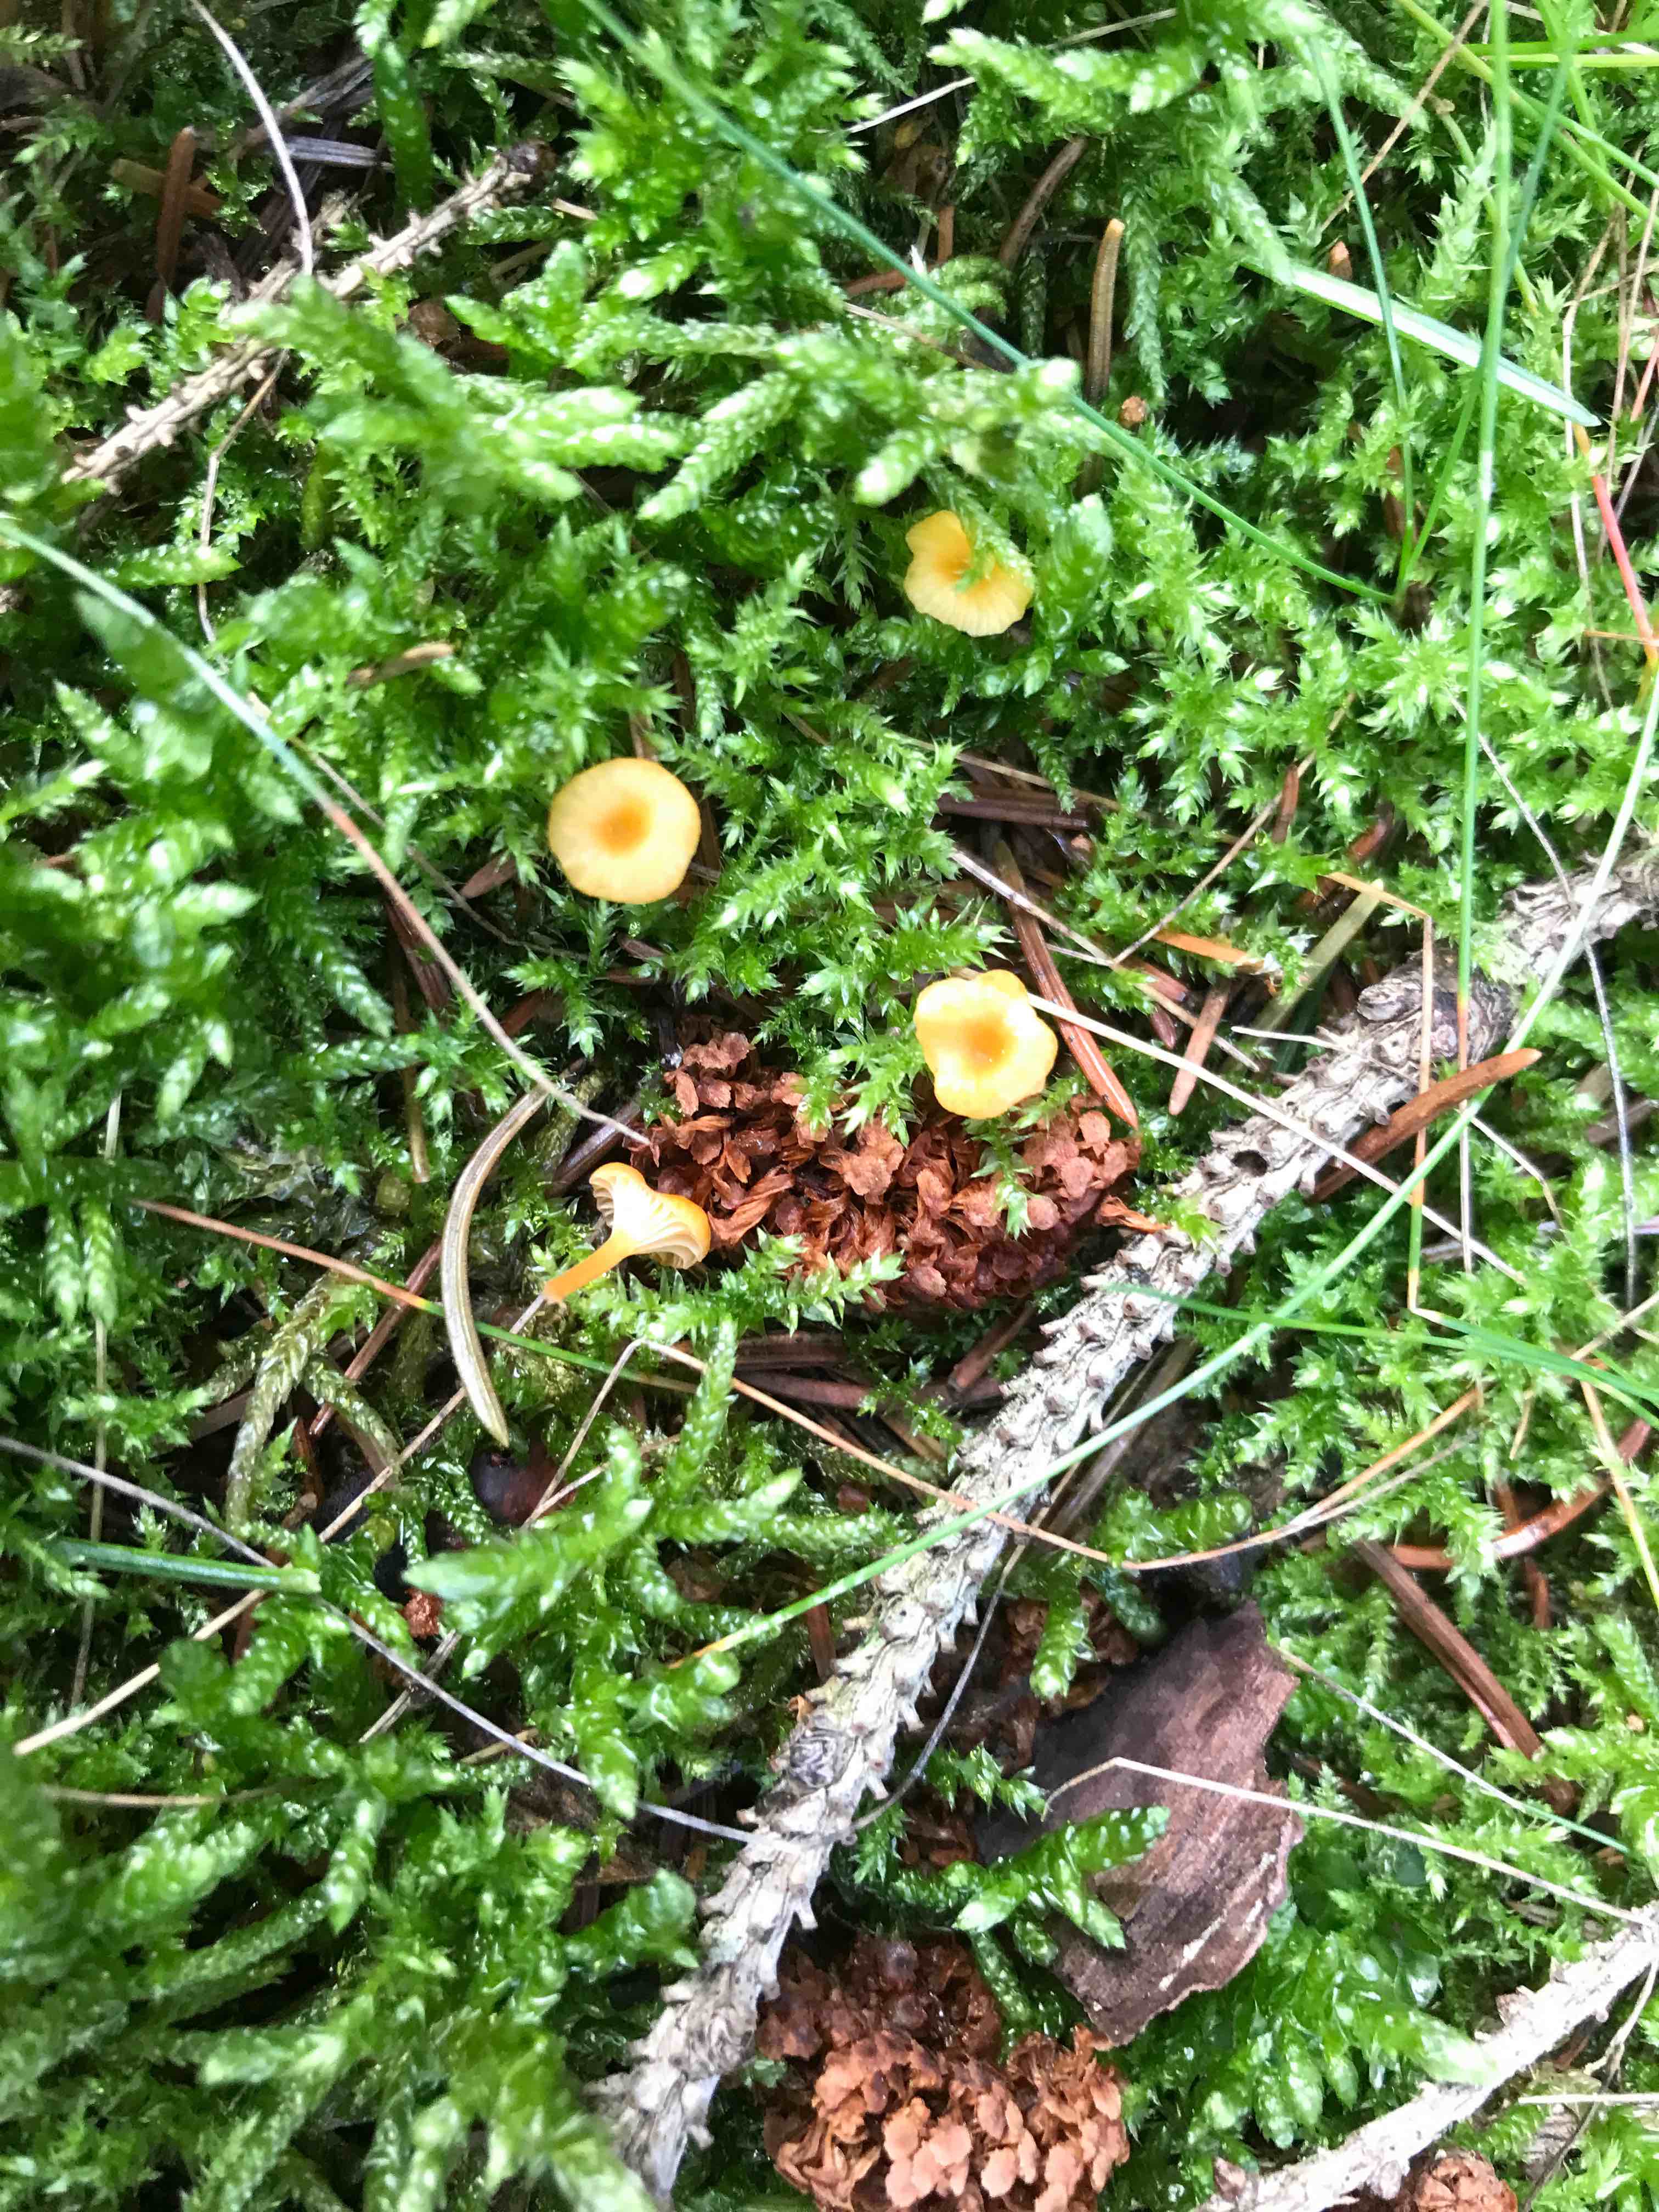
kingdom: Fungi
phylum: Basidiomycota
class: Agaricomycetes
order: Hymenochaetales
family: Rickenellaceae
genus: Rickenella
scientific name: Rickenella fibula
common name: orange mosnavlehat
